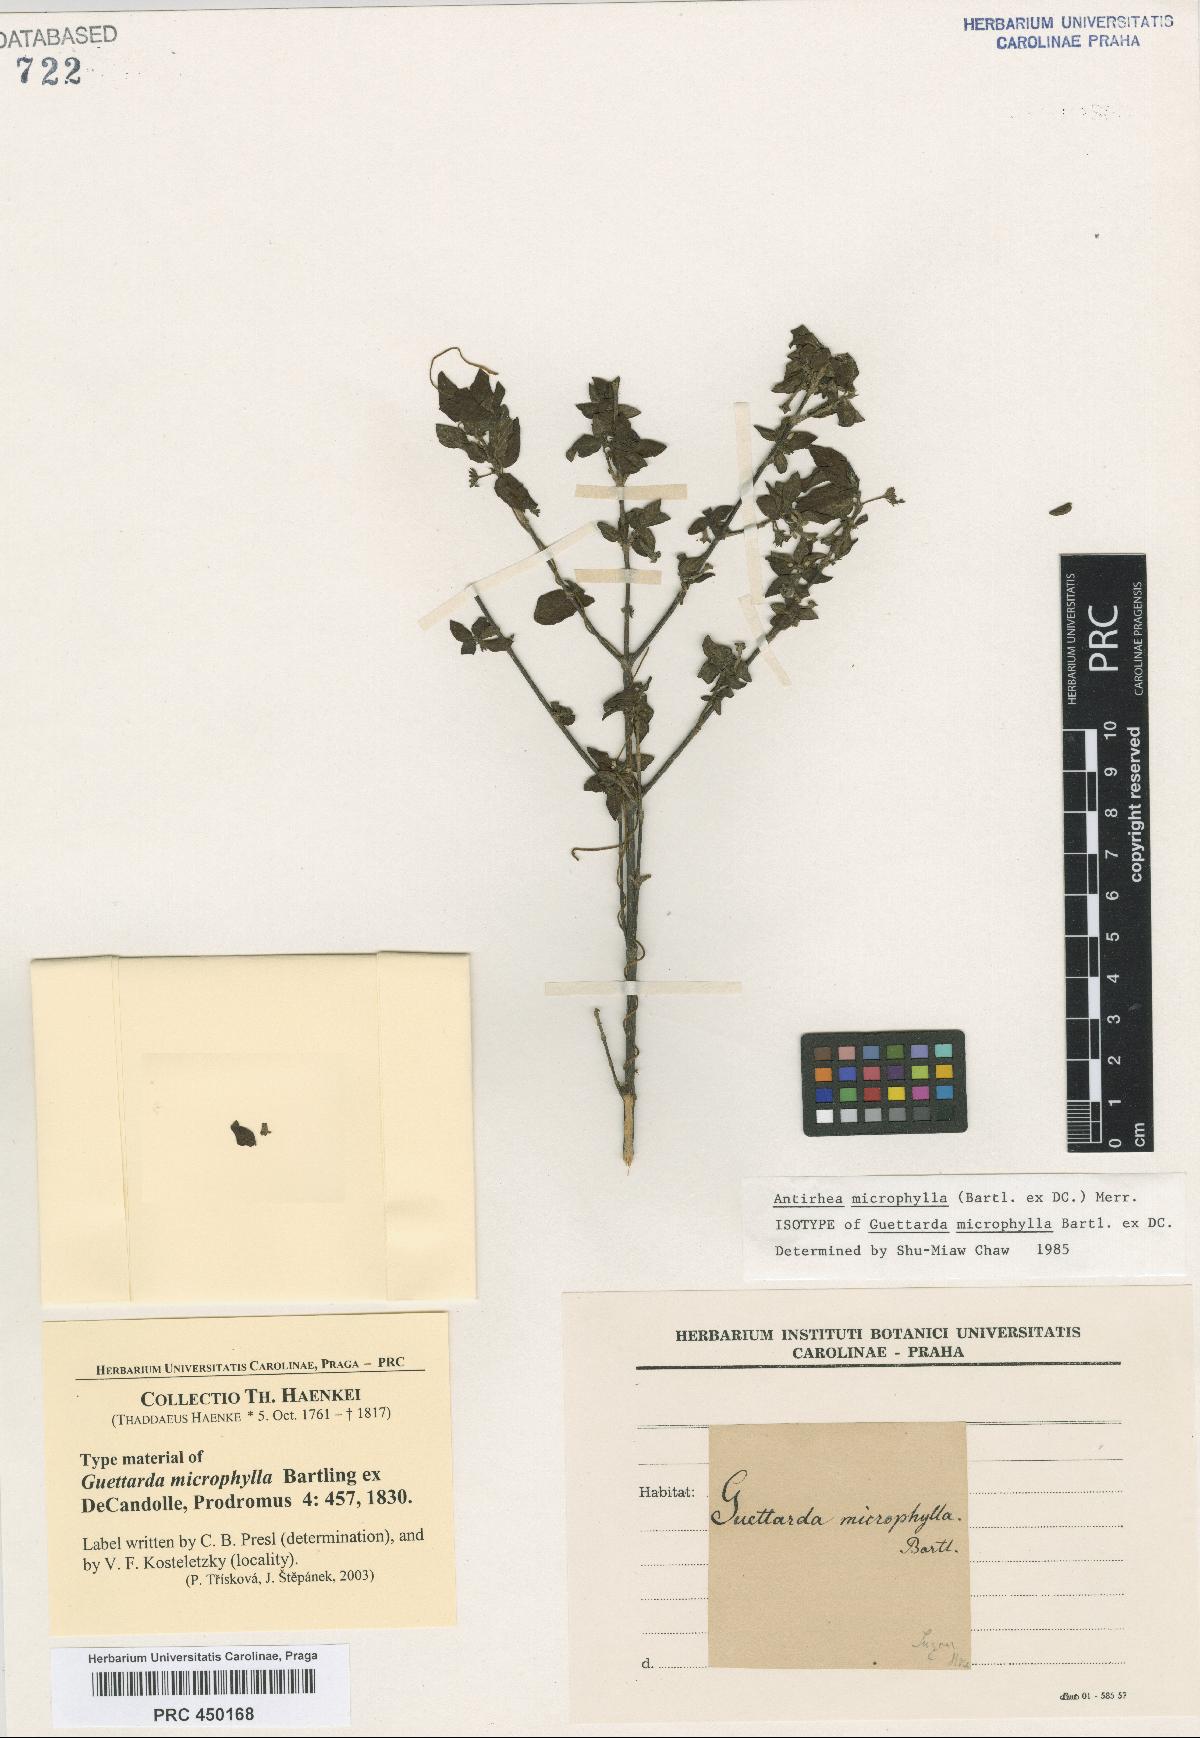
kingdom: Plantae
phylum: Tracheophyta
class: Magnoliopsida
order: Gentianales
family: Rubiaceae
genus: Guettardella
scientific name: Guettardella microphylla
